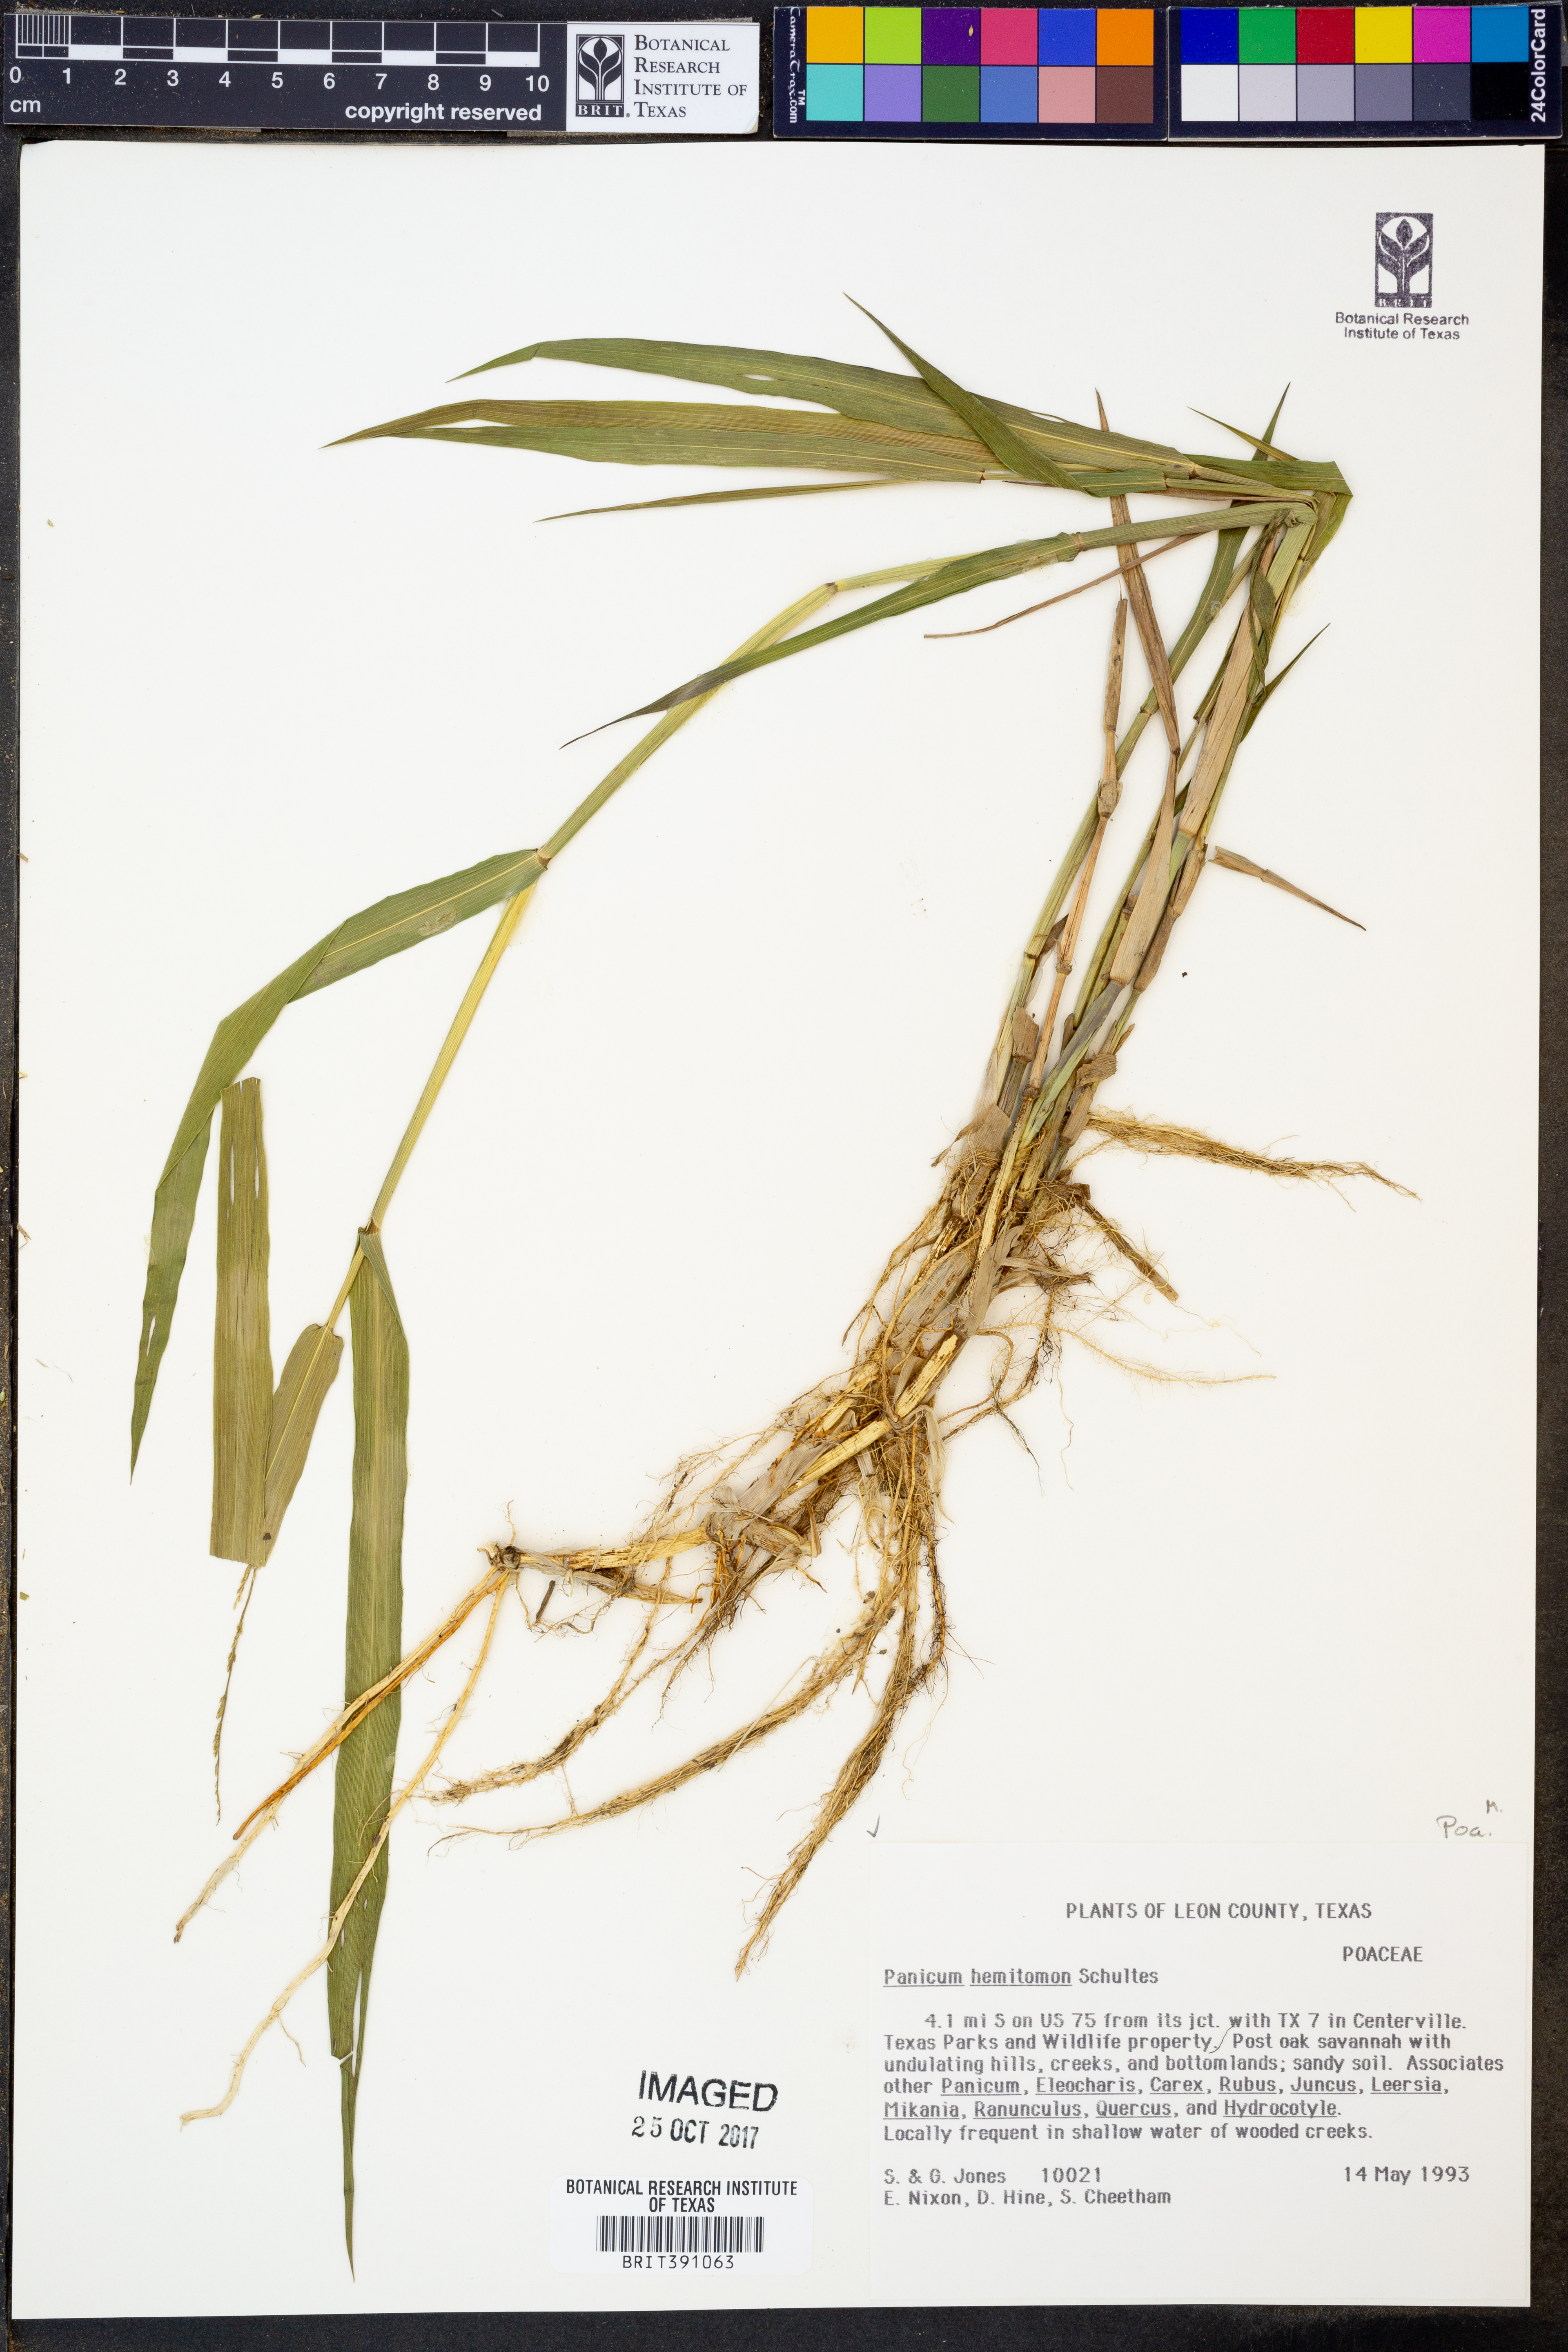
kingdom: Plantae
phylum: Tracheophyta
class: Liliopsida
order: Poales
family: Poaceae
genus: Panicum
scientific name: Panicum hemitomon
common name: Maidencane
